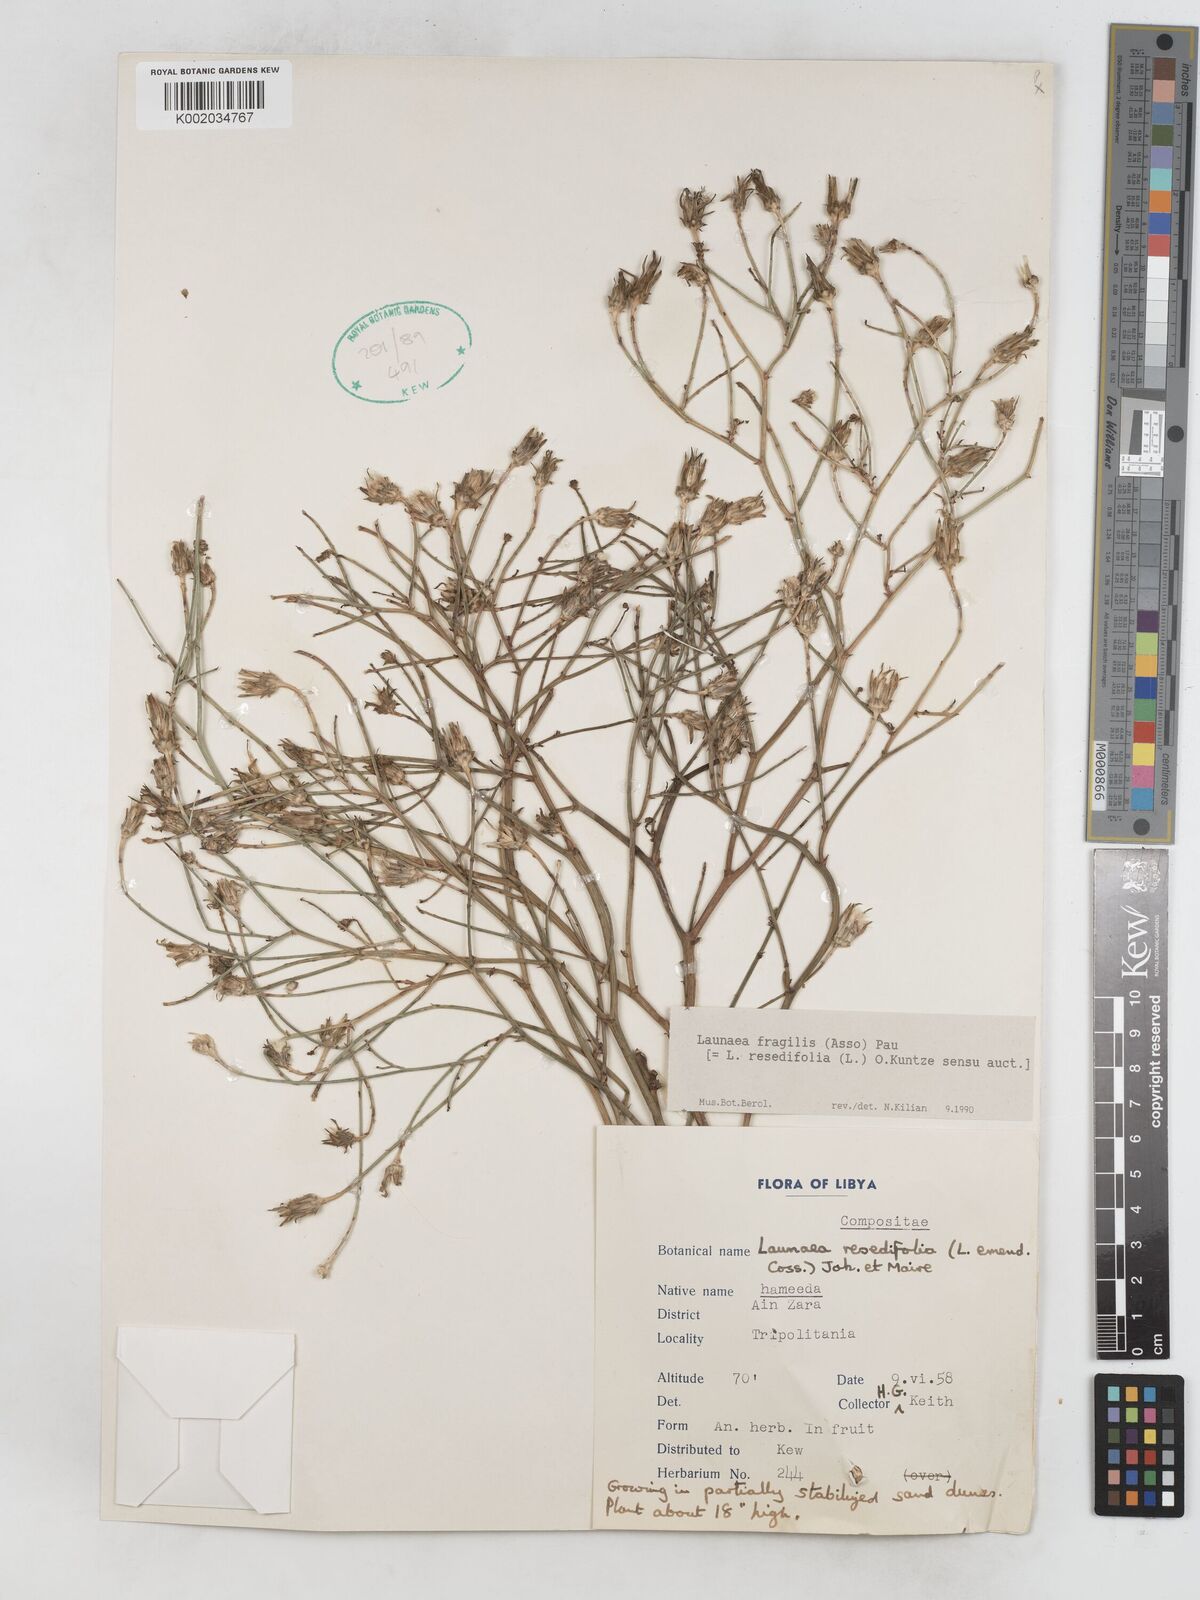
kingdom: Plantae
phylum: Tracheophyta
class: Magnoliopsida
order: Asterales
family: Asteraceae
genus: Launaea
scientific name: Launaea fragilis
